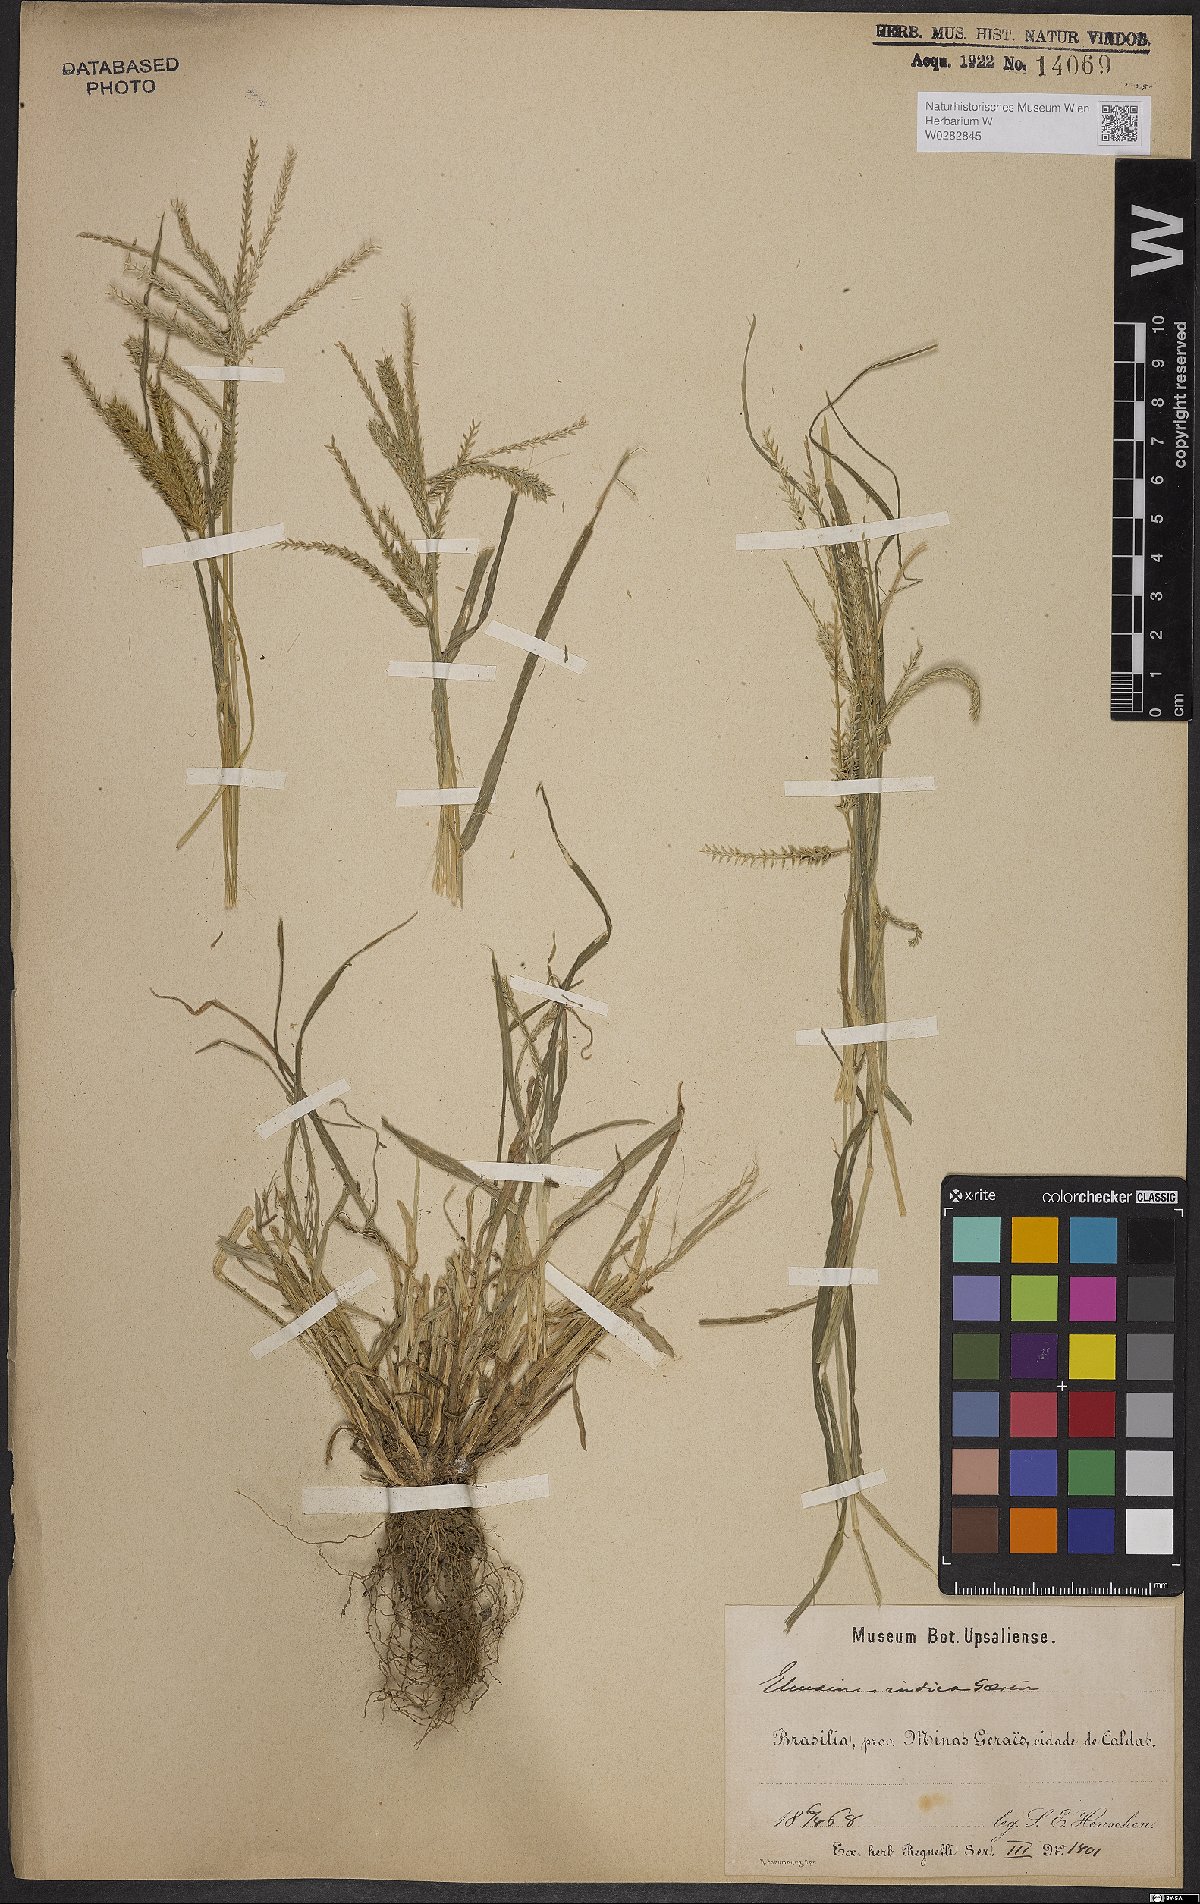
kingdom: Plantae
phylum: Tracheophyta
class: Liliopsida
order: Poales
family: Poaceae
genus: Eleusine
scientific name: Eleusine indica
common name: Yard-grass
